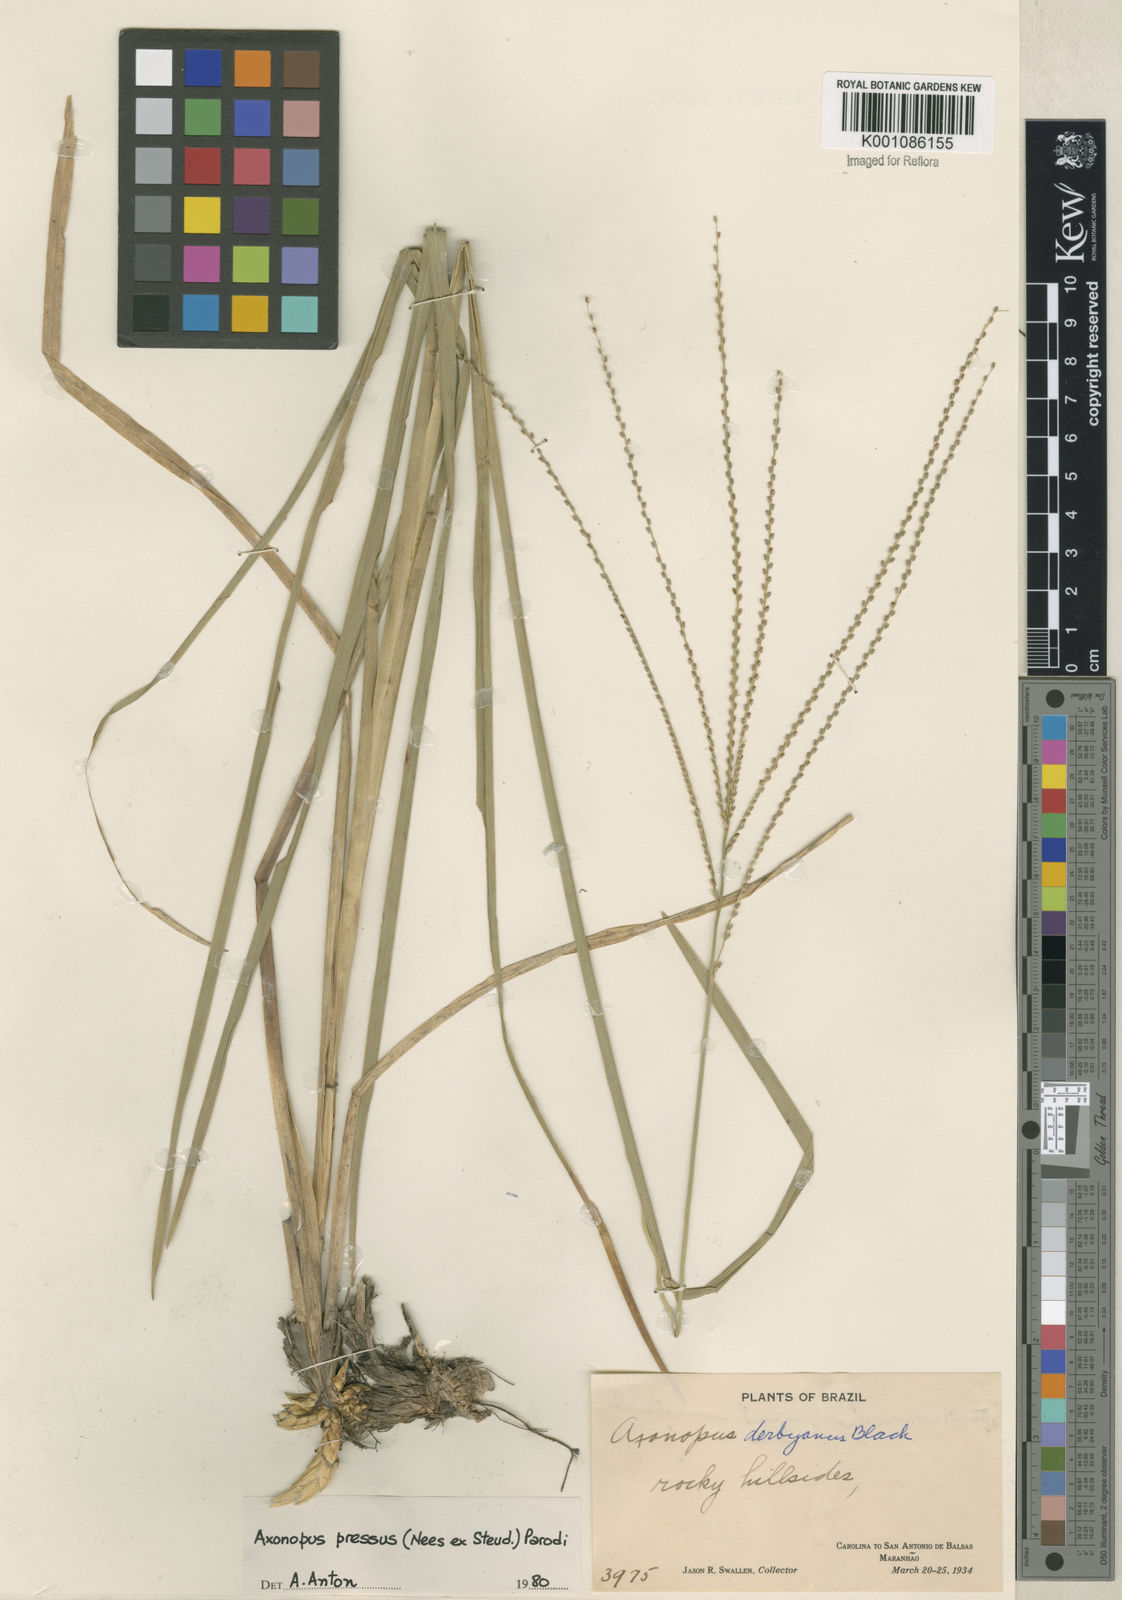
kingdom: Plantae
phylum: Tracheophyta
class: Liliopsida
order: Poales
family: Poaceae
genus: Axonopus
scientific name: Axonopus pressus
